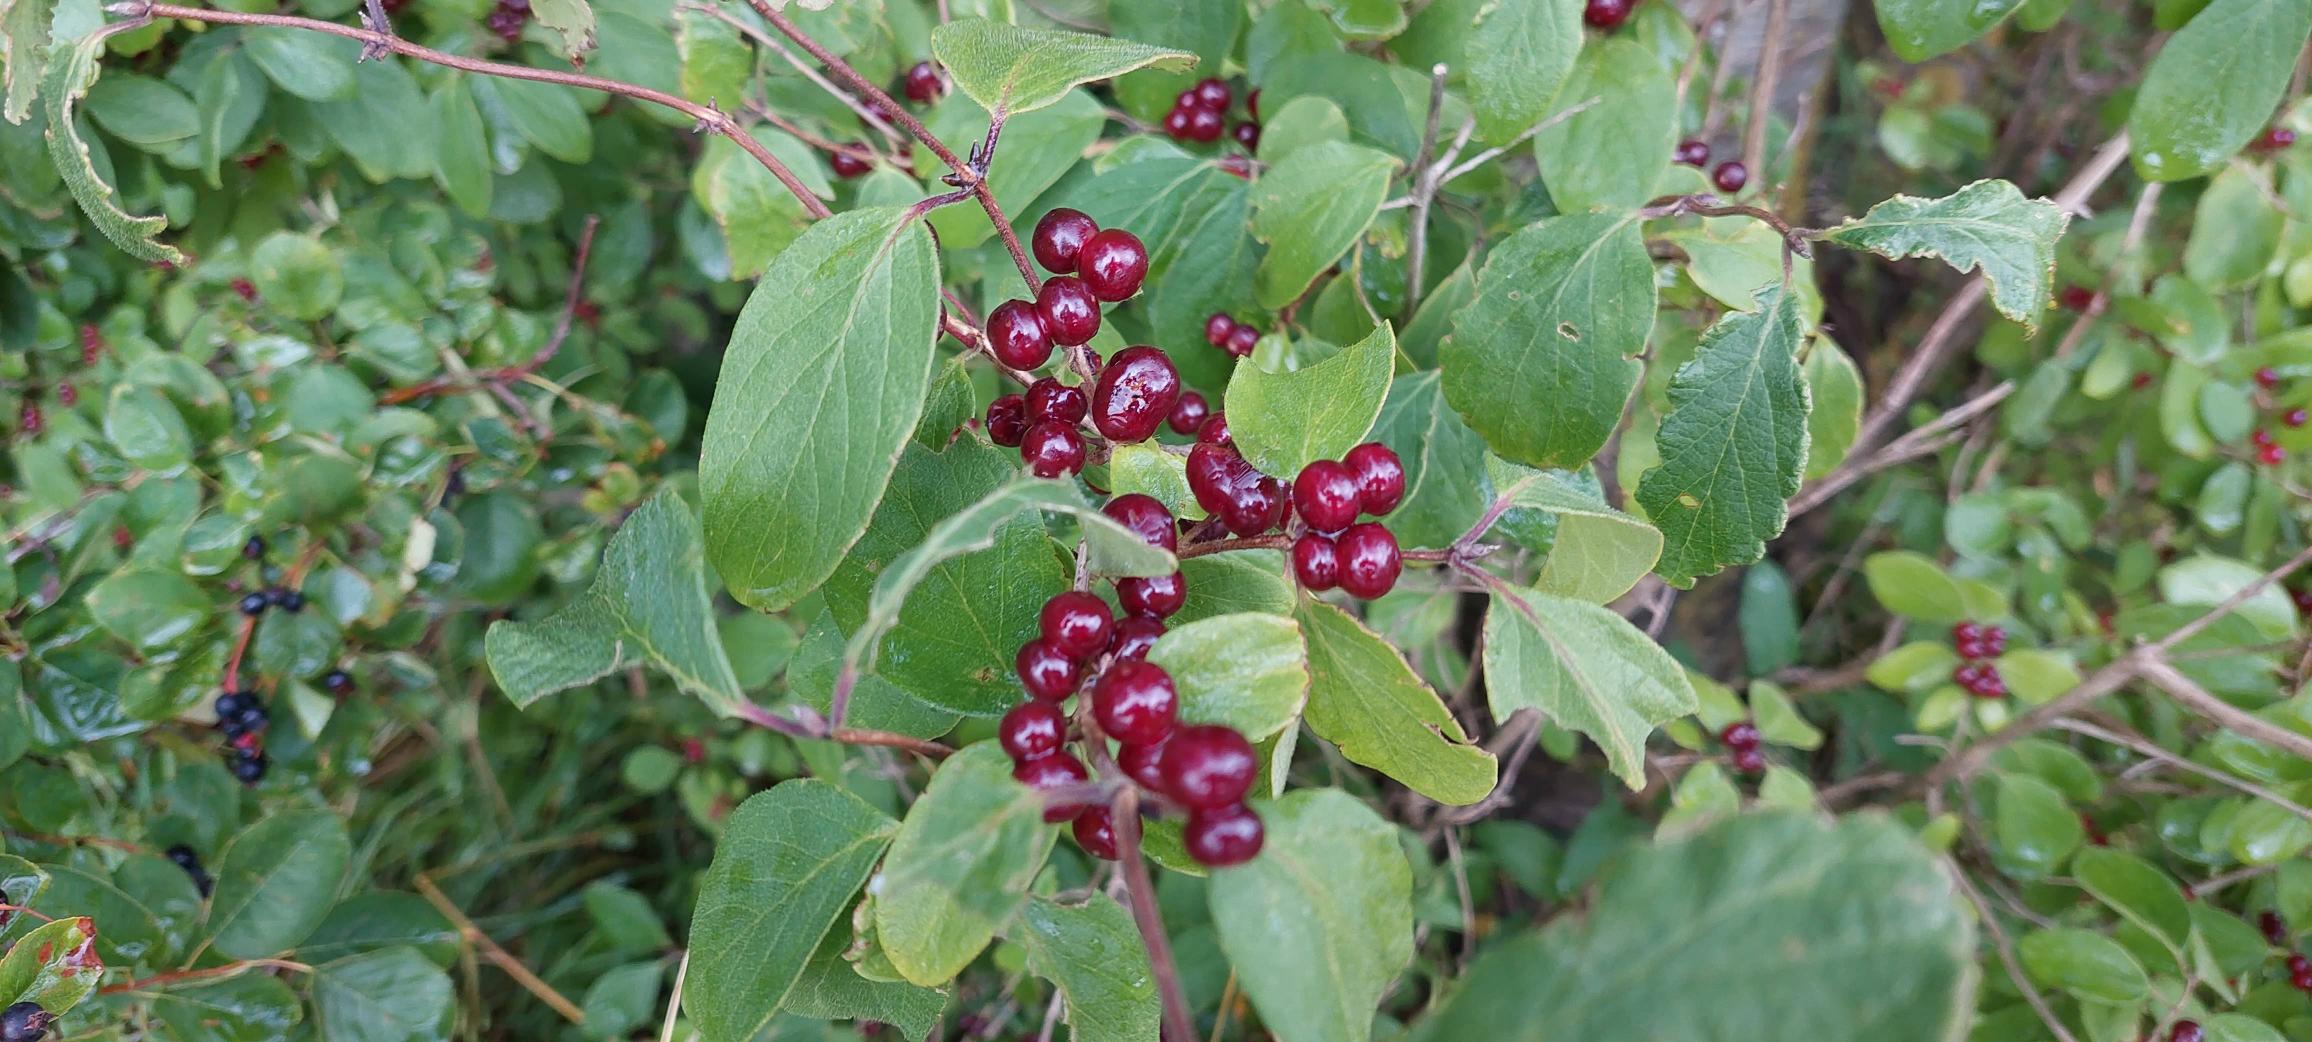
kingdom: Plantae
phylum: Tracheophyta
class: Magnoliopsida
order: Dipsacales
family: Caprifoliaceae
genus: Lonicera
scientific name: Lonicera xylosteum
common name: Dunet gedeblad
